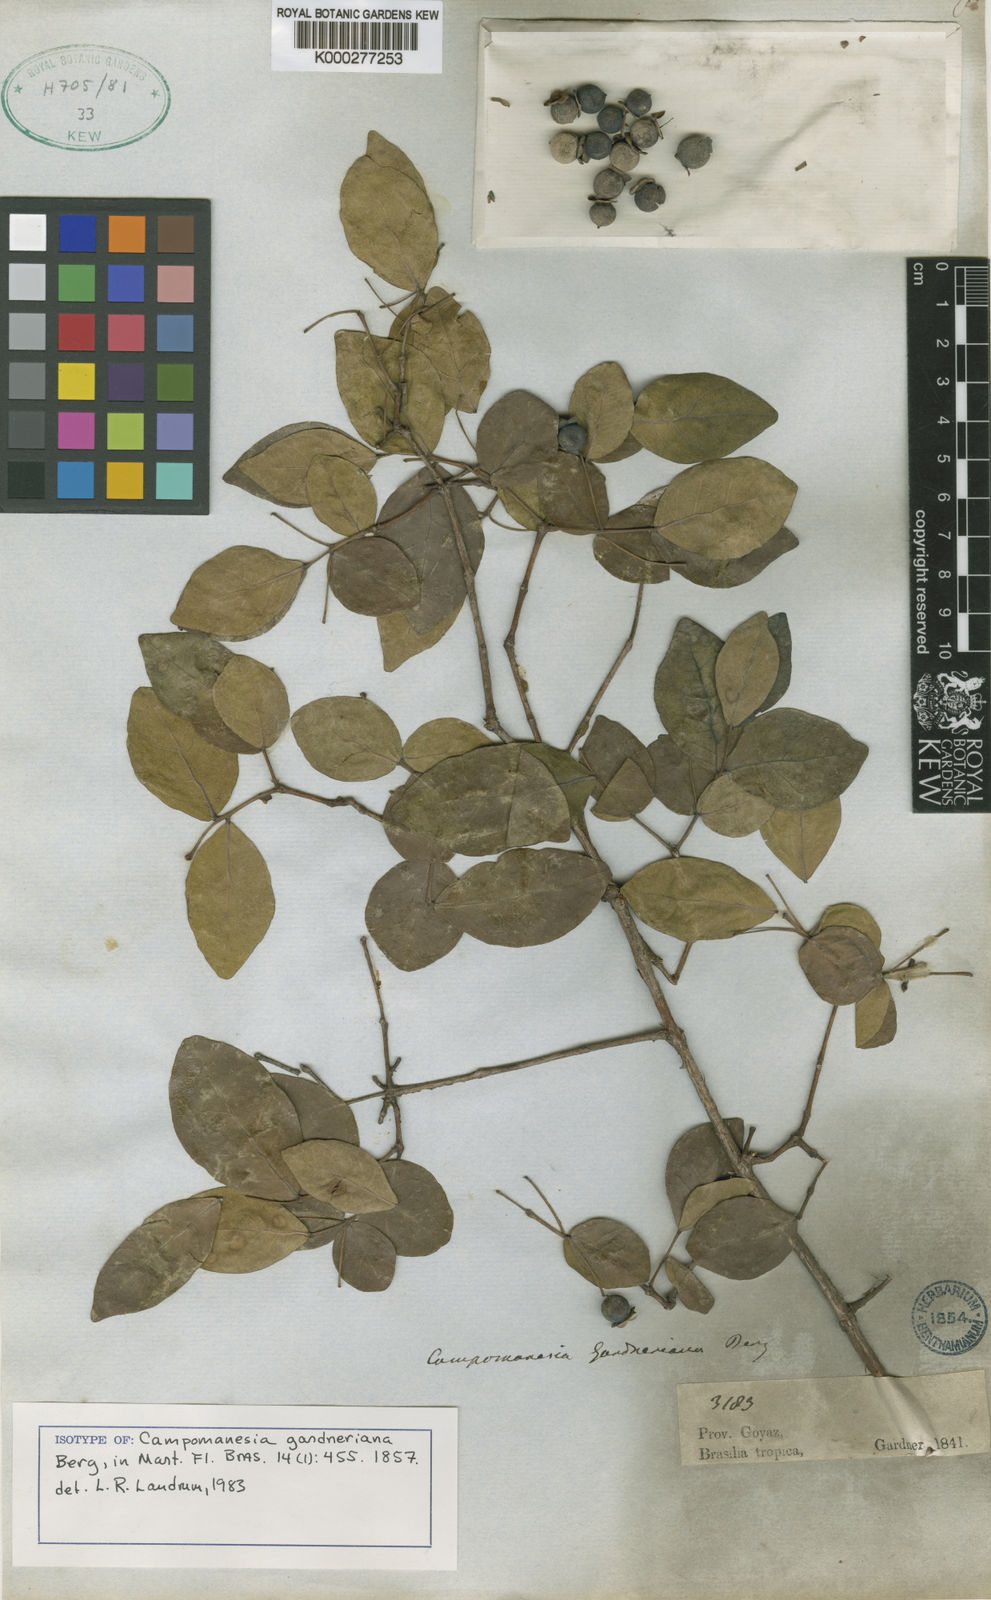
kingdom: Plantae
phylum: Tracheophyta
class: Magnoliopsida
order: Myrtales
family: Myrtaceae
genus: Campomanesia
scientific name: Campomanesia aurea
